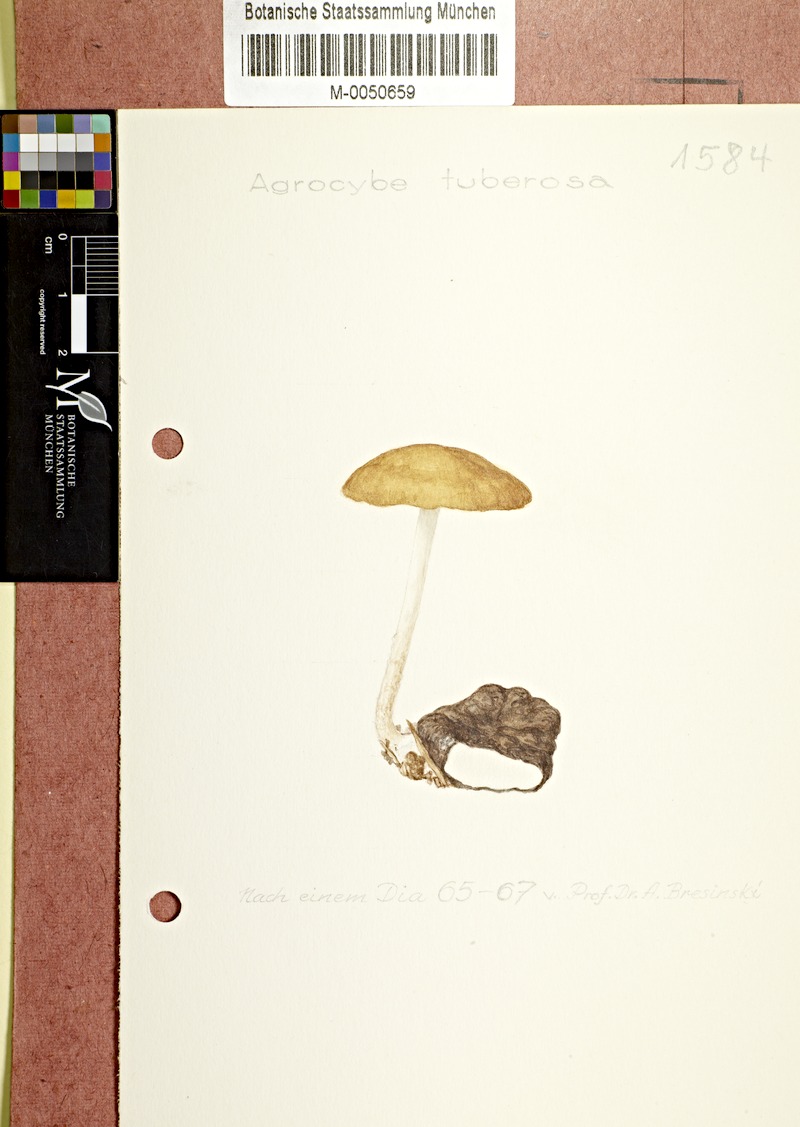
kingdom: Fungi
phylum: Basidiomycota
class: Agaricomycetes
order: Agaricales
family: Strophariaceae
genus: Agrocybe
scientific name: Agrocybe arvalis
